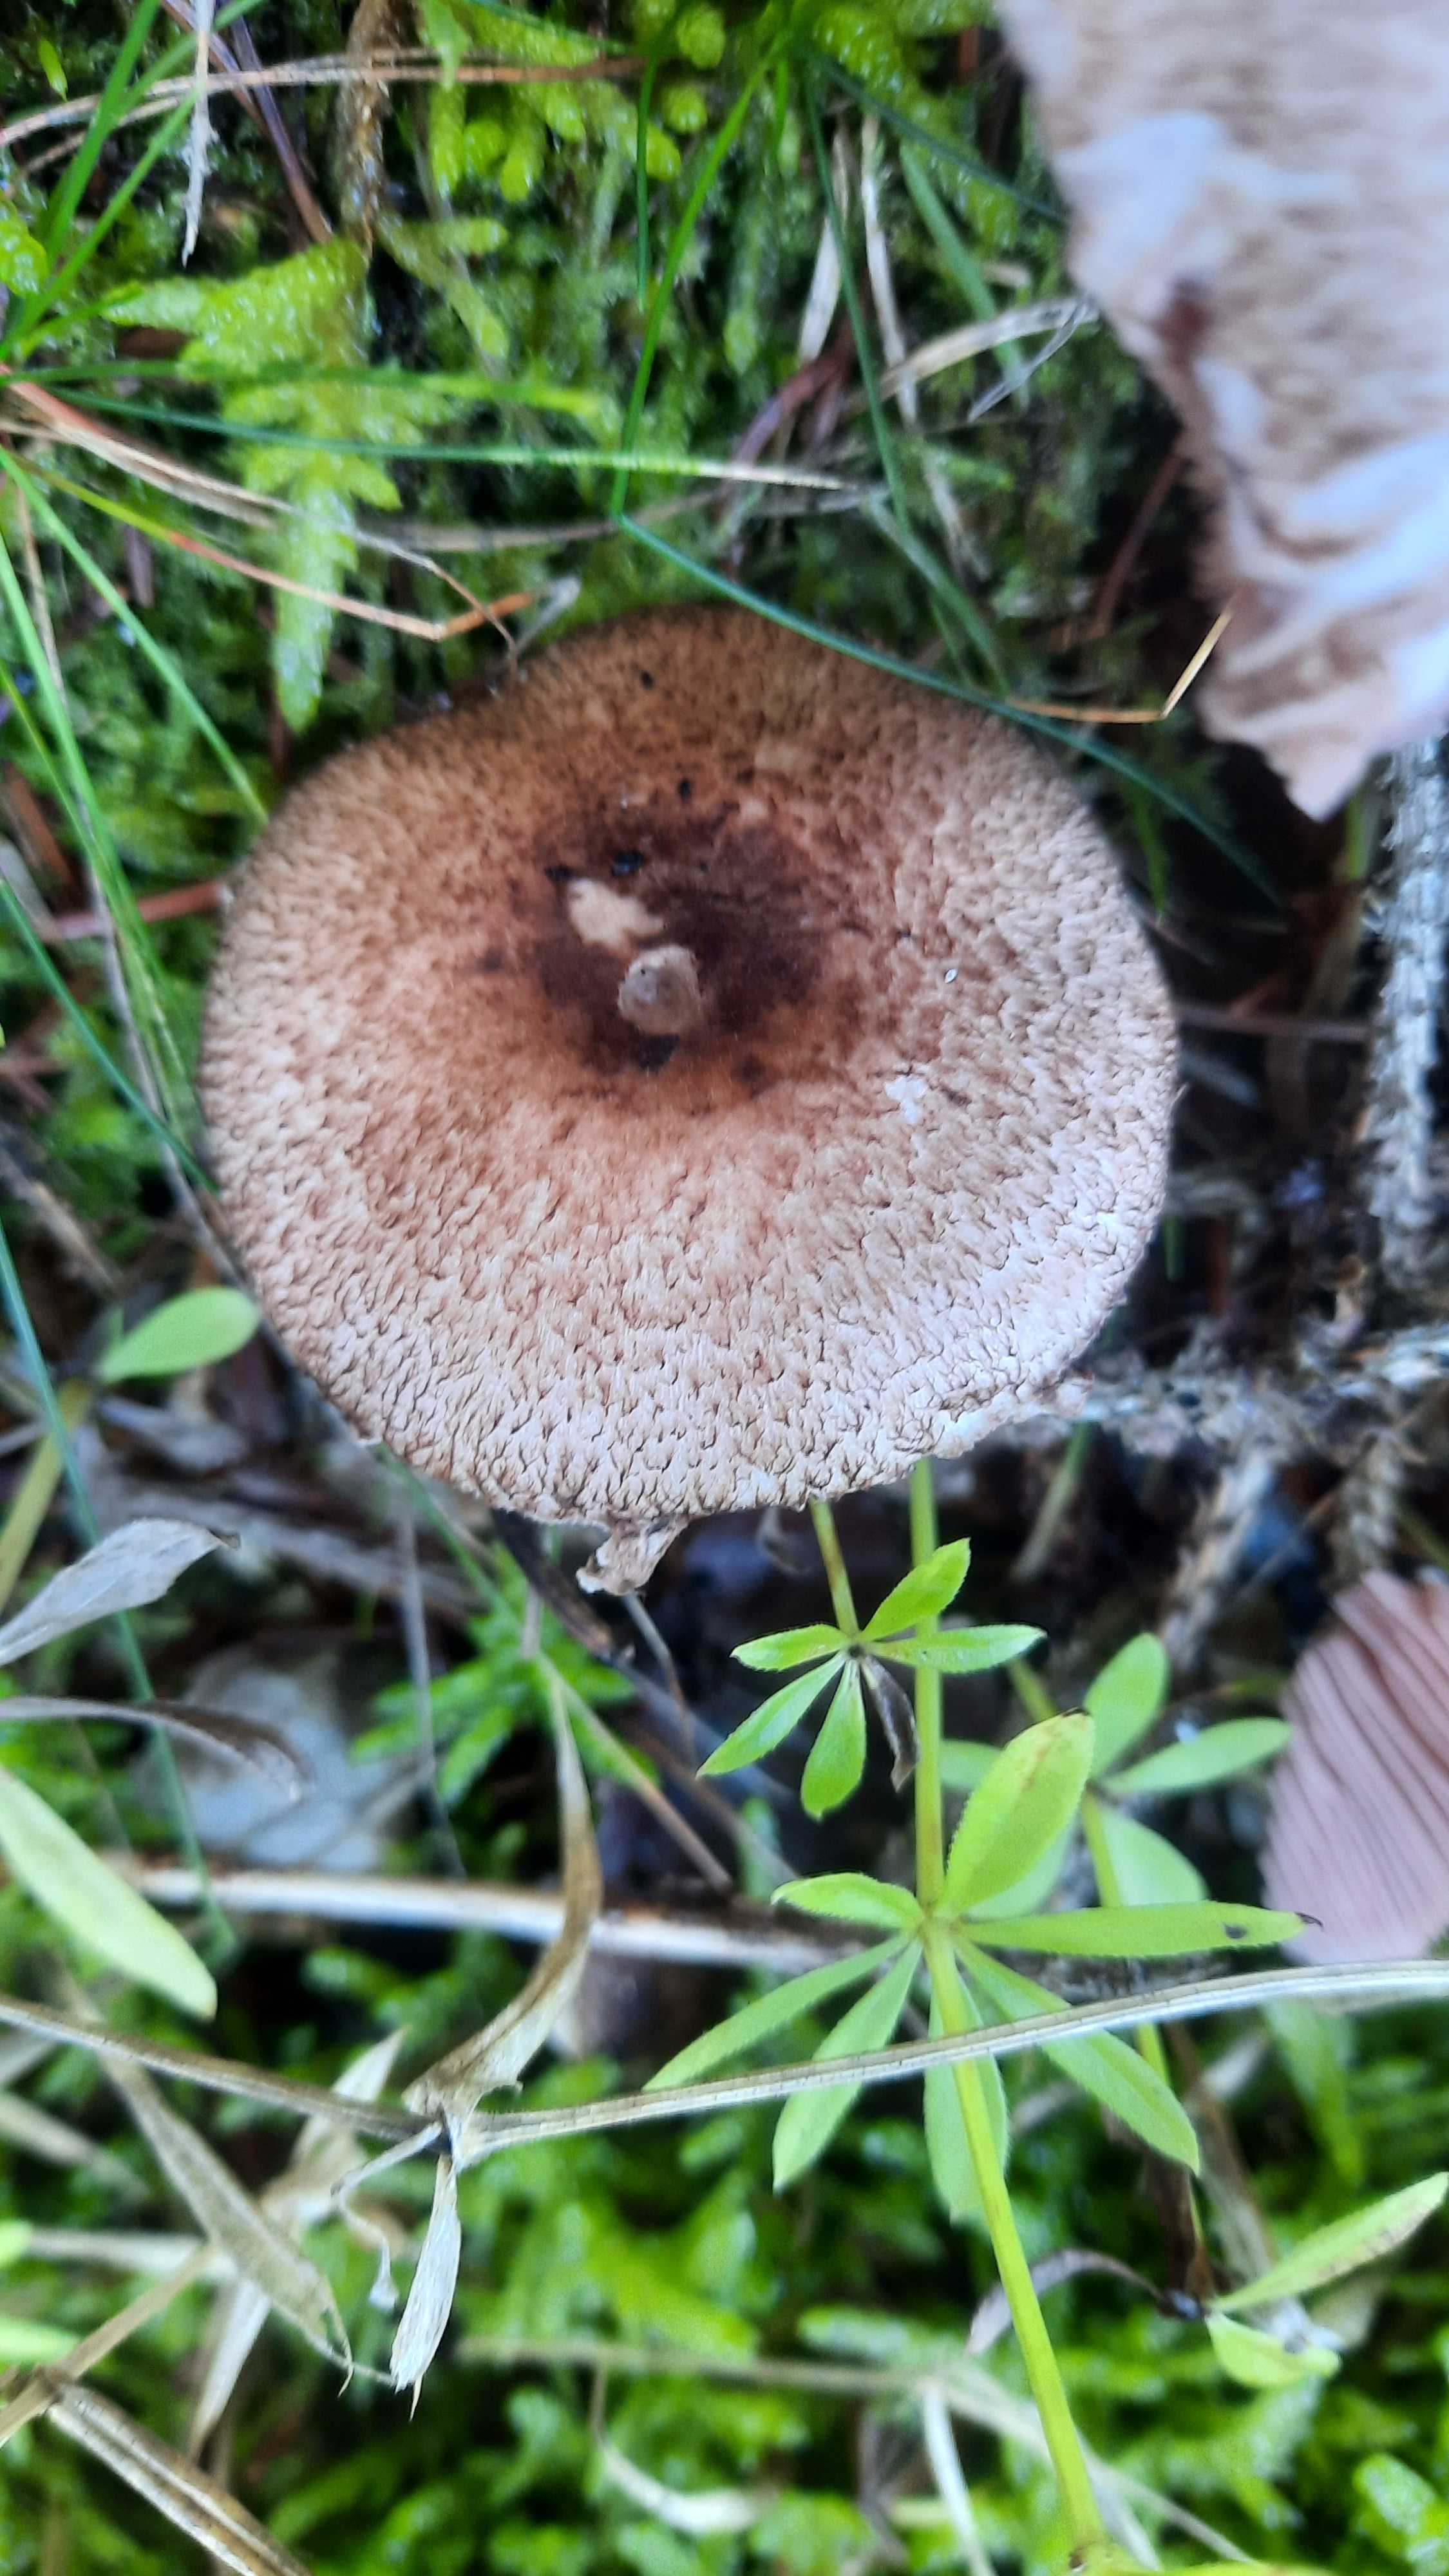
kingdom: Fungi
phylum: Basidiomycota
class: Agaricomycetes
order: Agaricales
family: Agaricaceae
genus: Agaricus
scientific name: Agaricus
